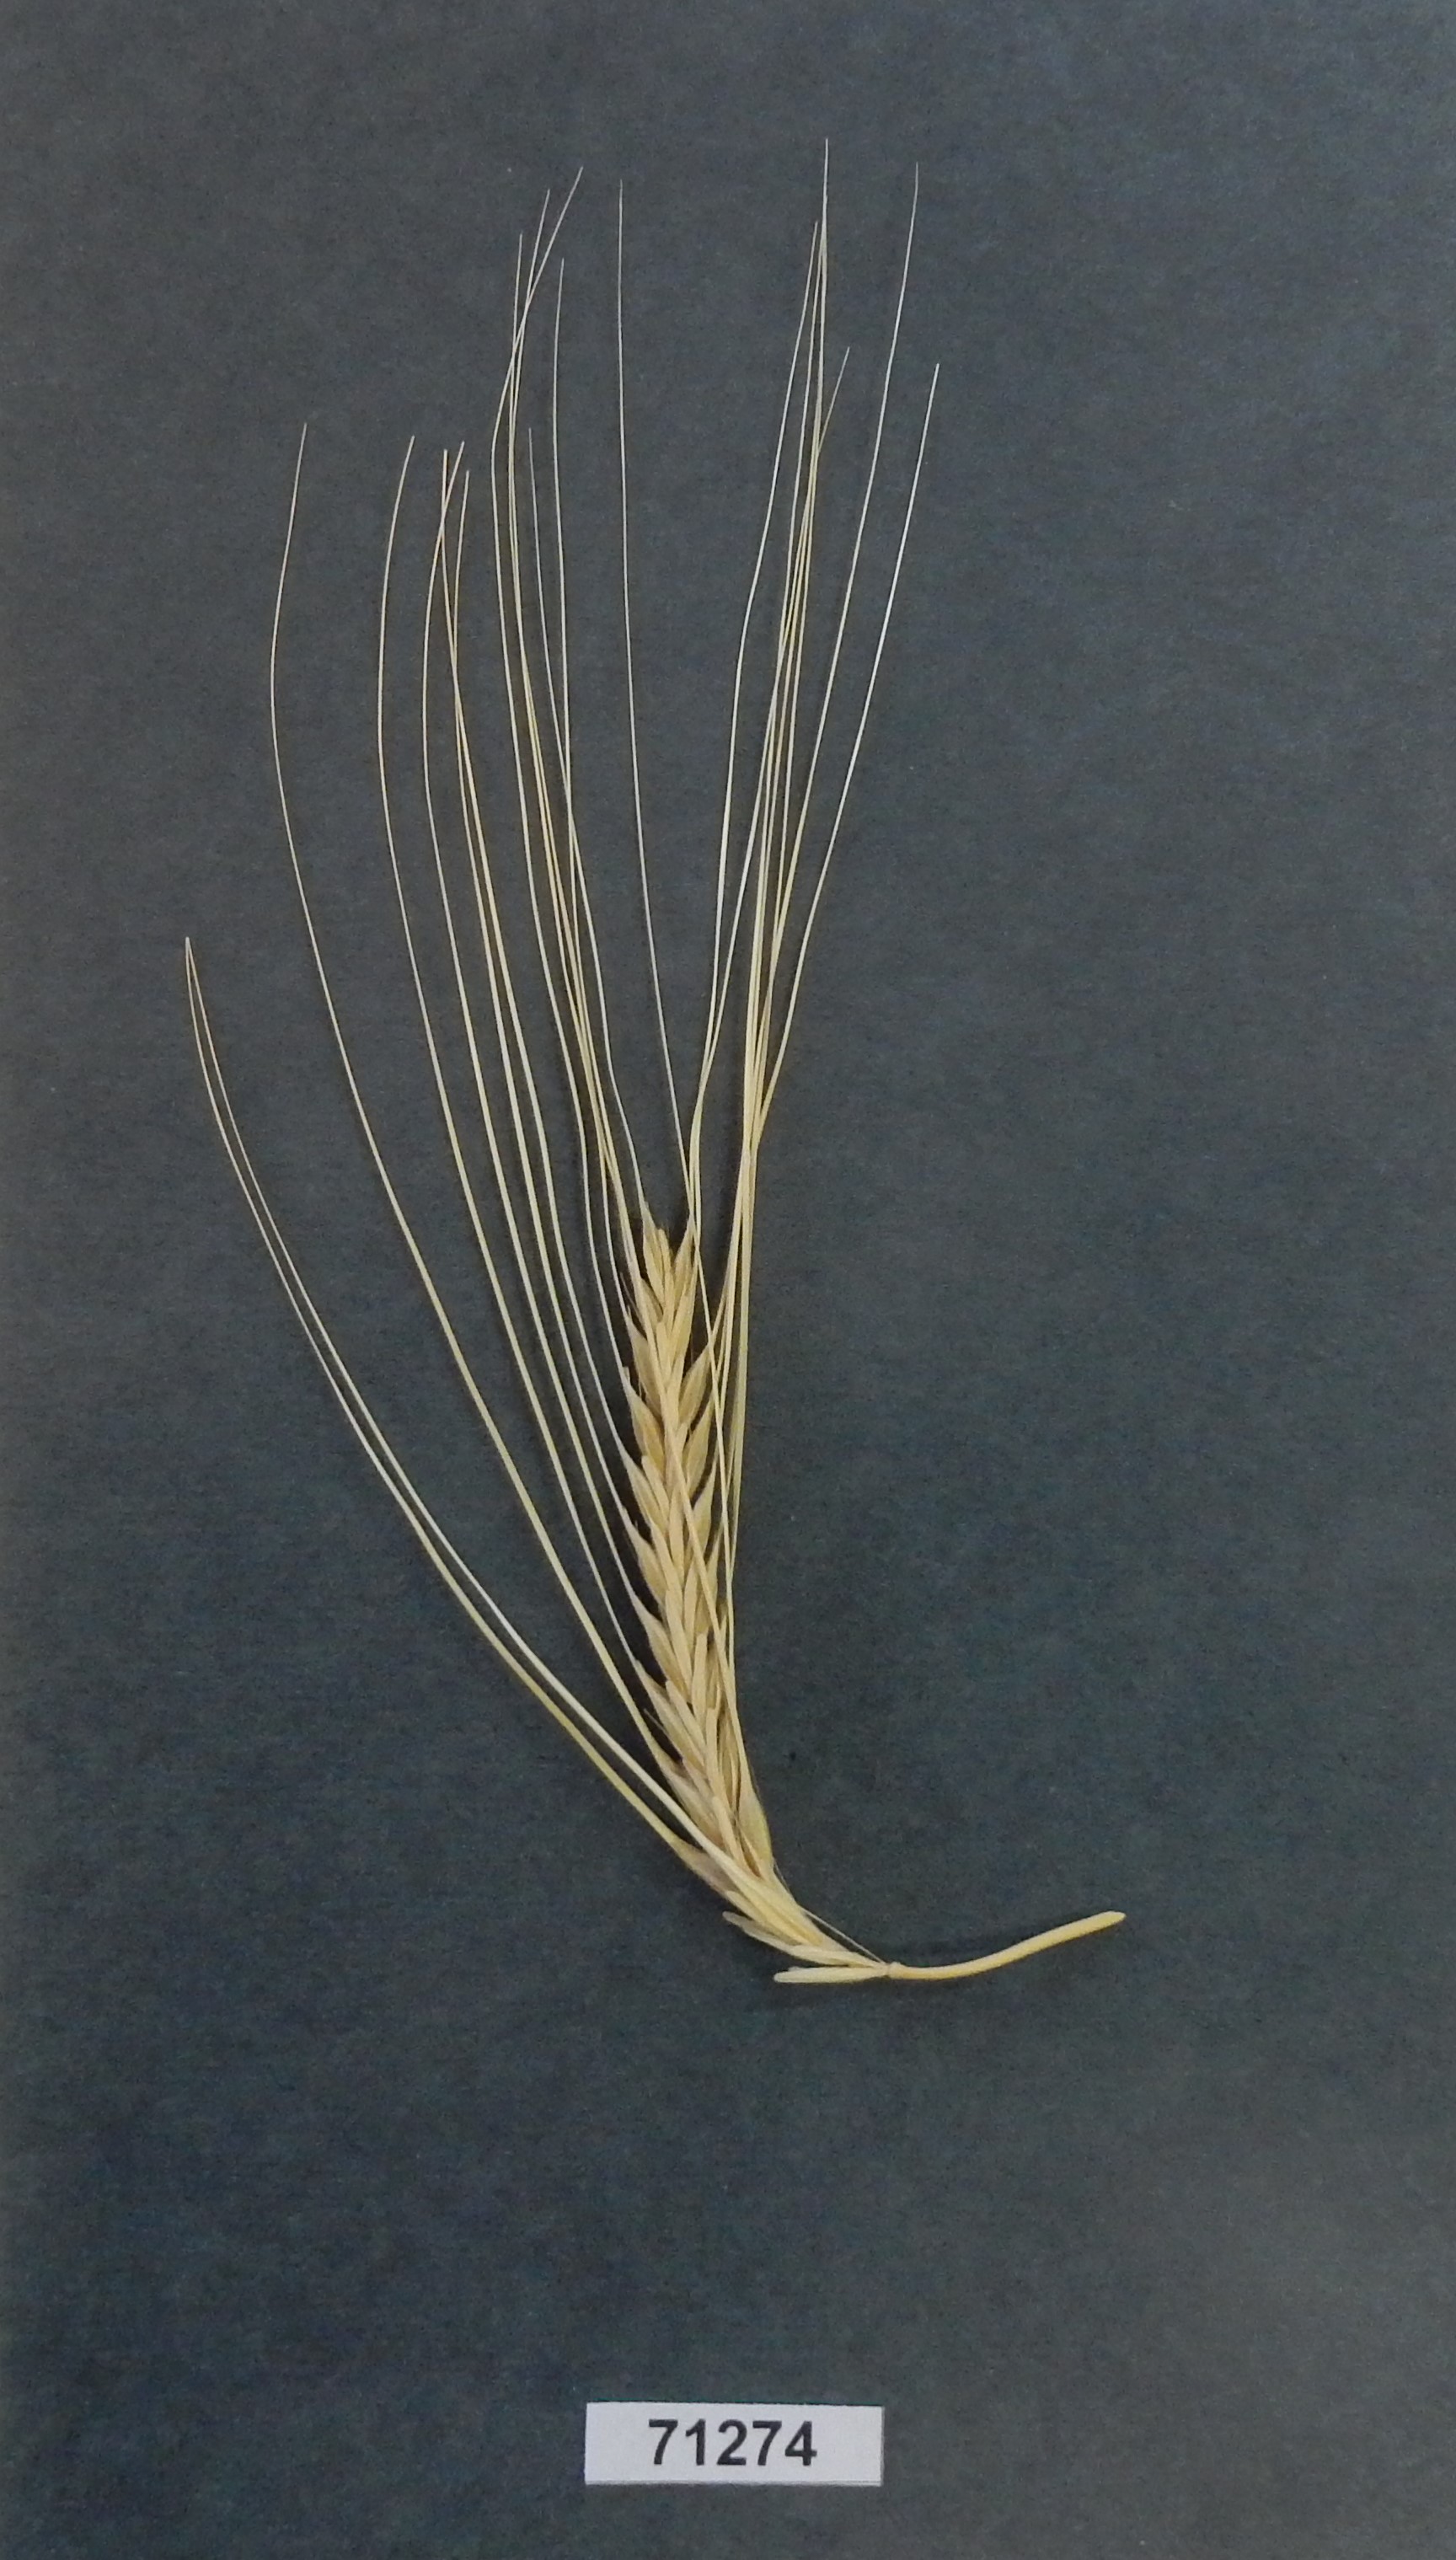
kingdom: Plantae
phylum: Tracheophyta
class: Liliopsida
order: Poales
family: Poaceae
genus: Hordeum
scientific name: Hordeum vulgare
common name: Barley
